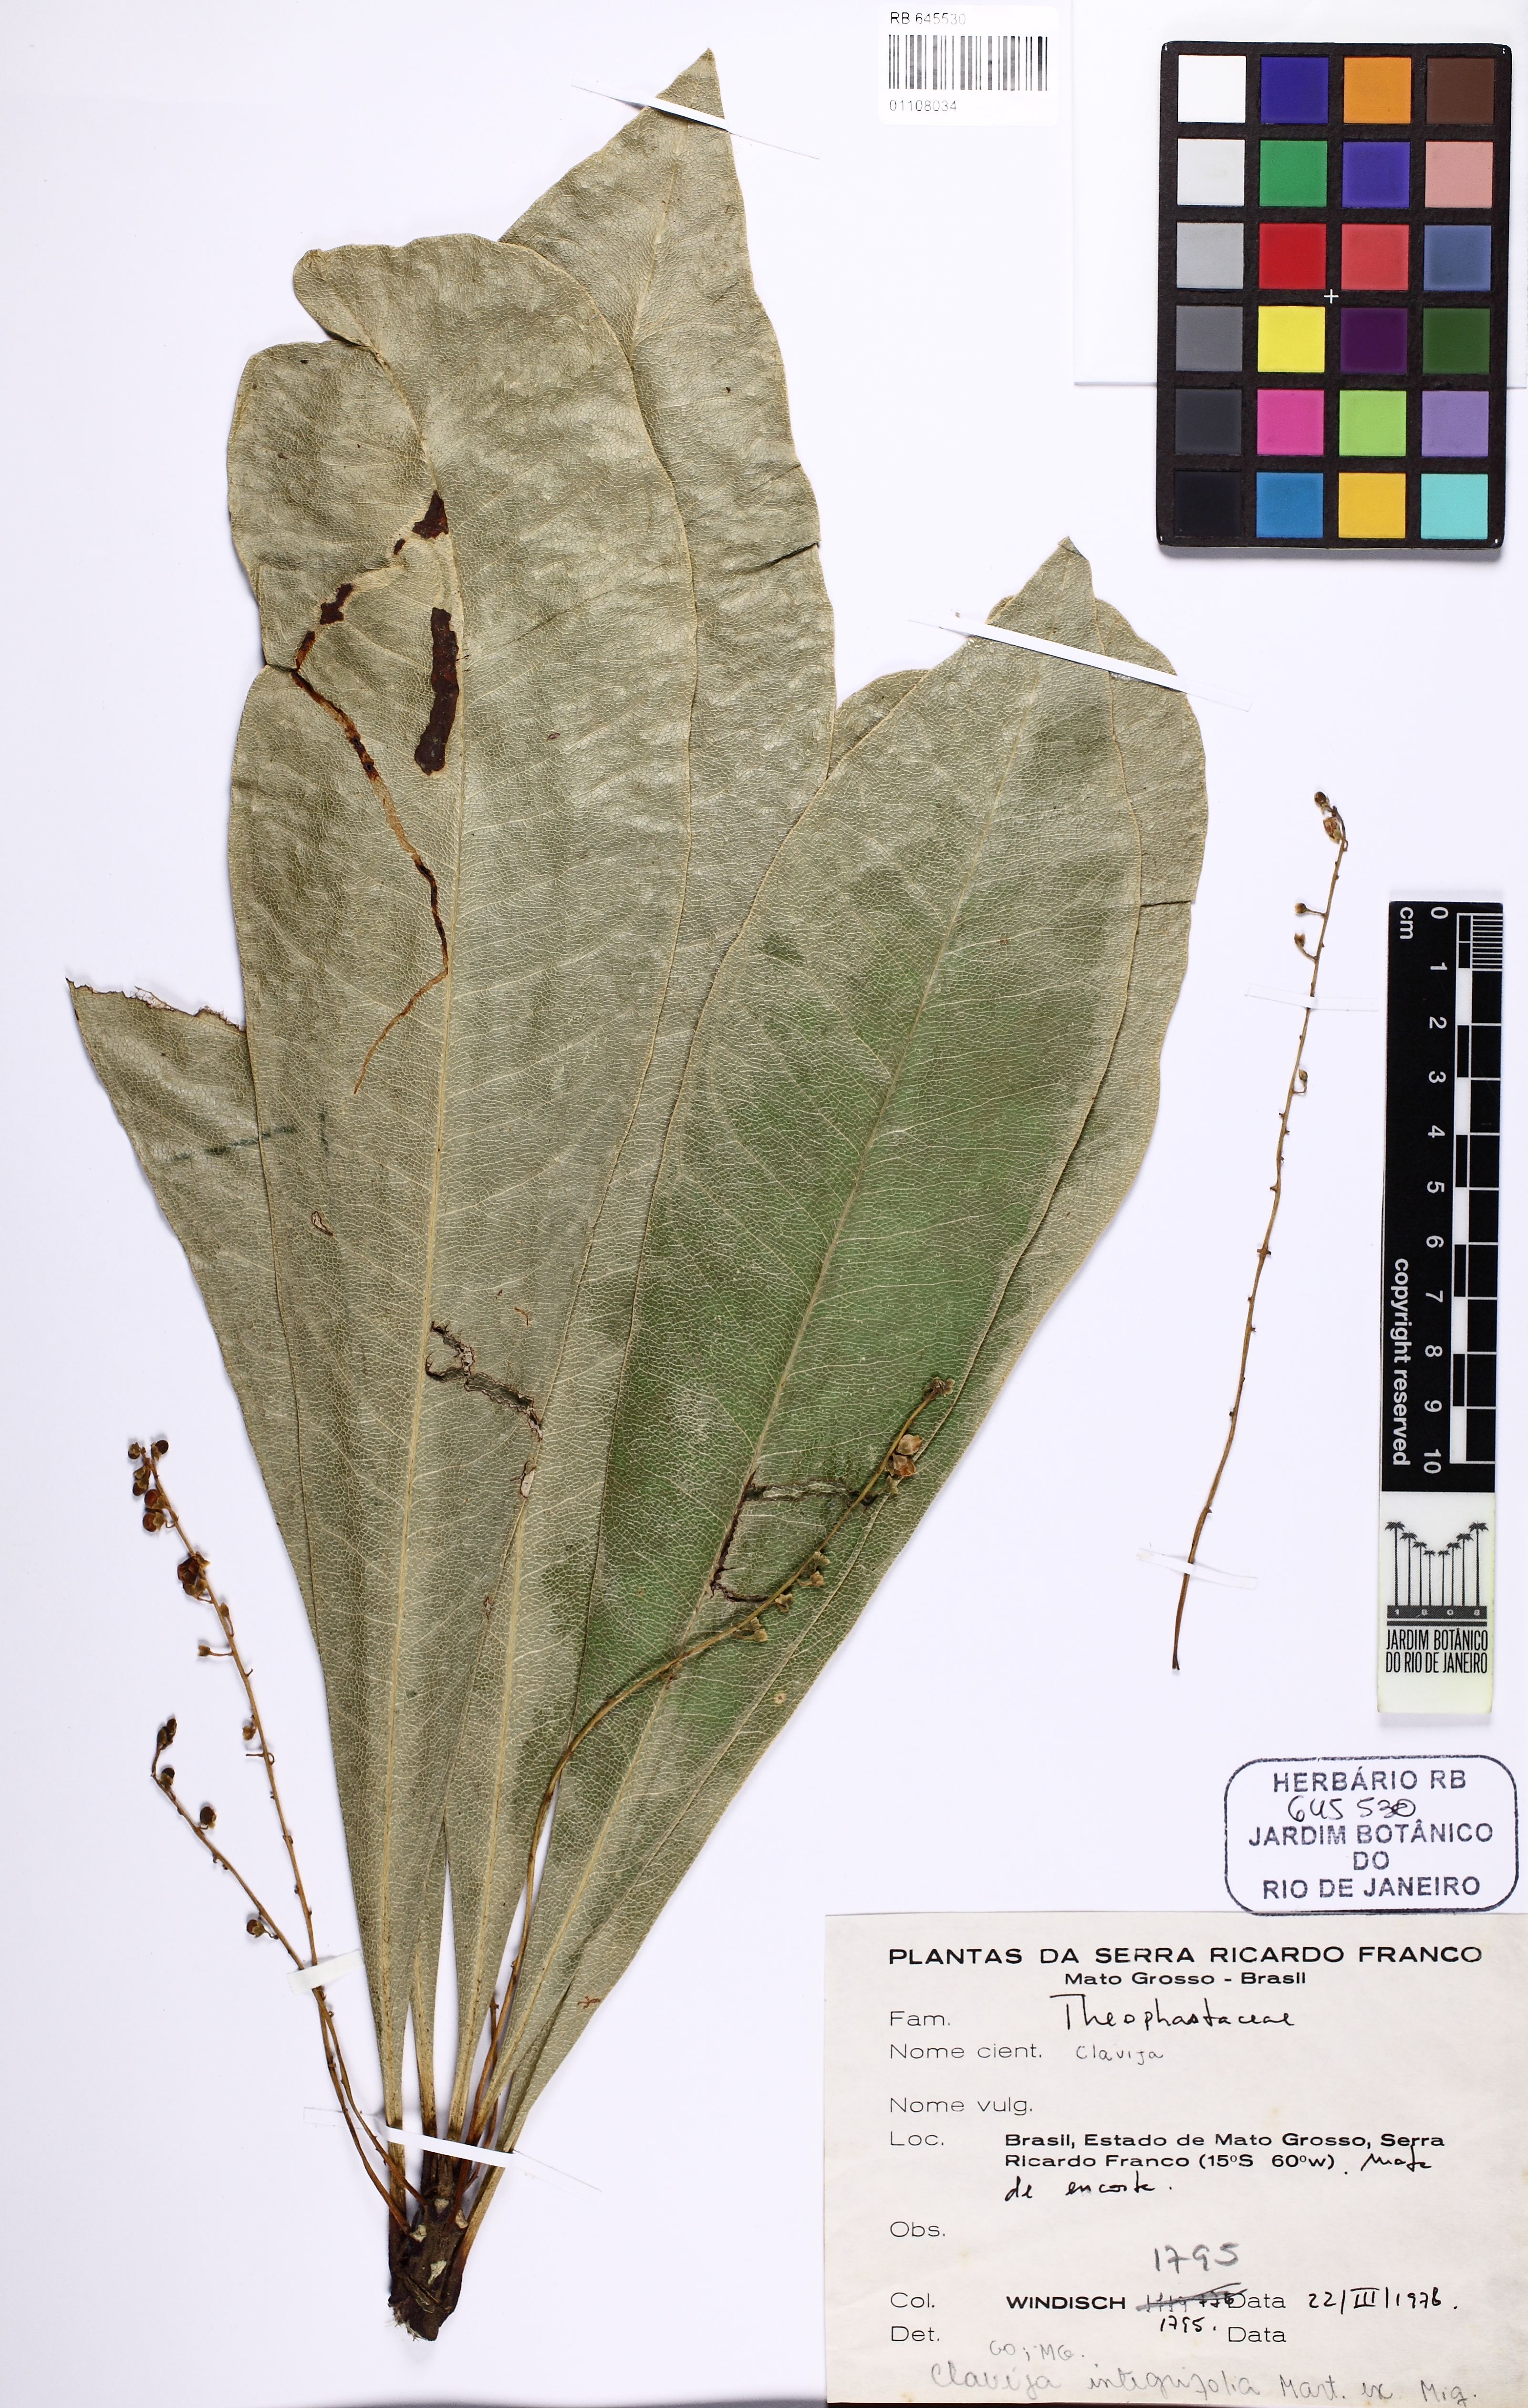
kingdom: Plantae
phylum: Tracheophyta
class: Magnoliopsida
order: Ericales
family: Primulaceae
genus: Clavija
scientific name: Clavija nutans
